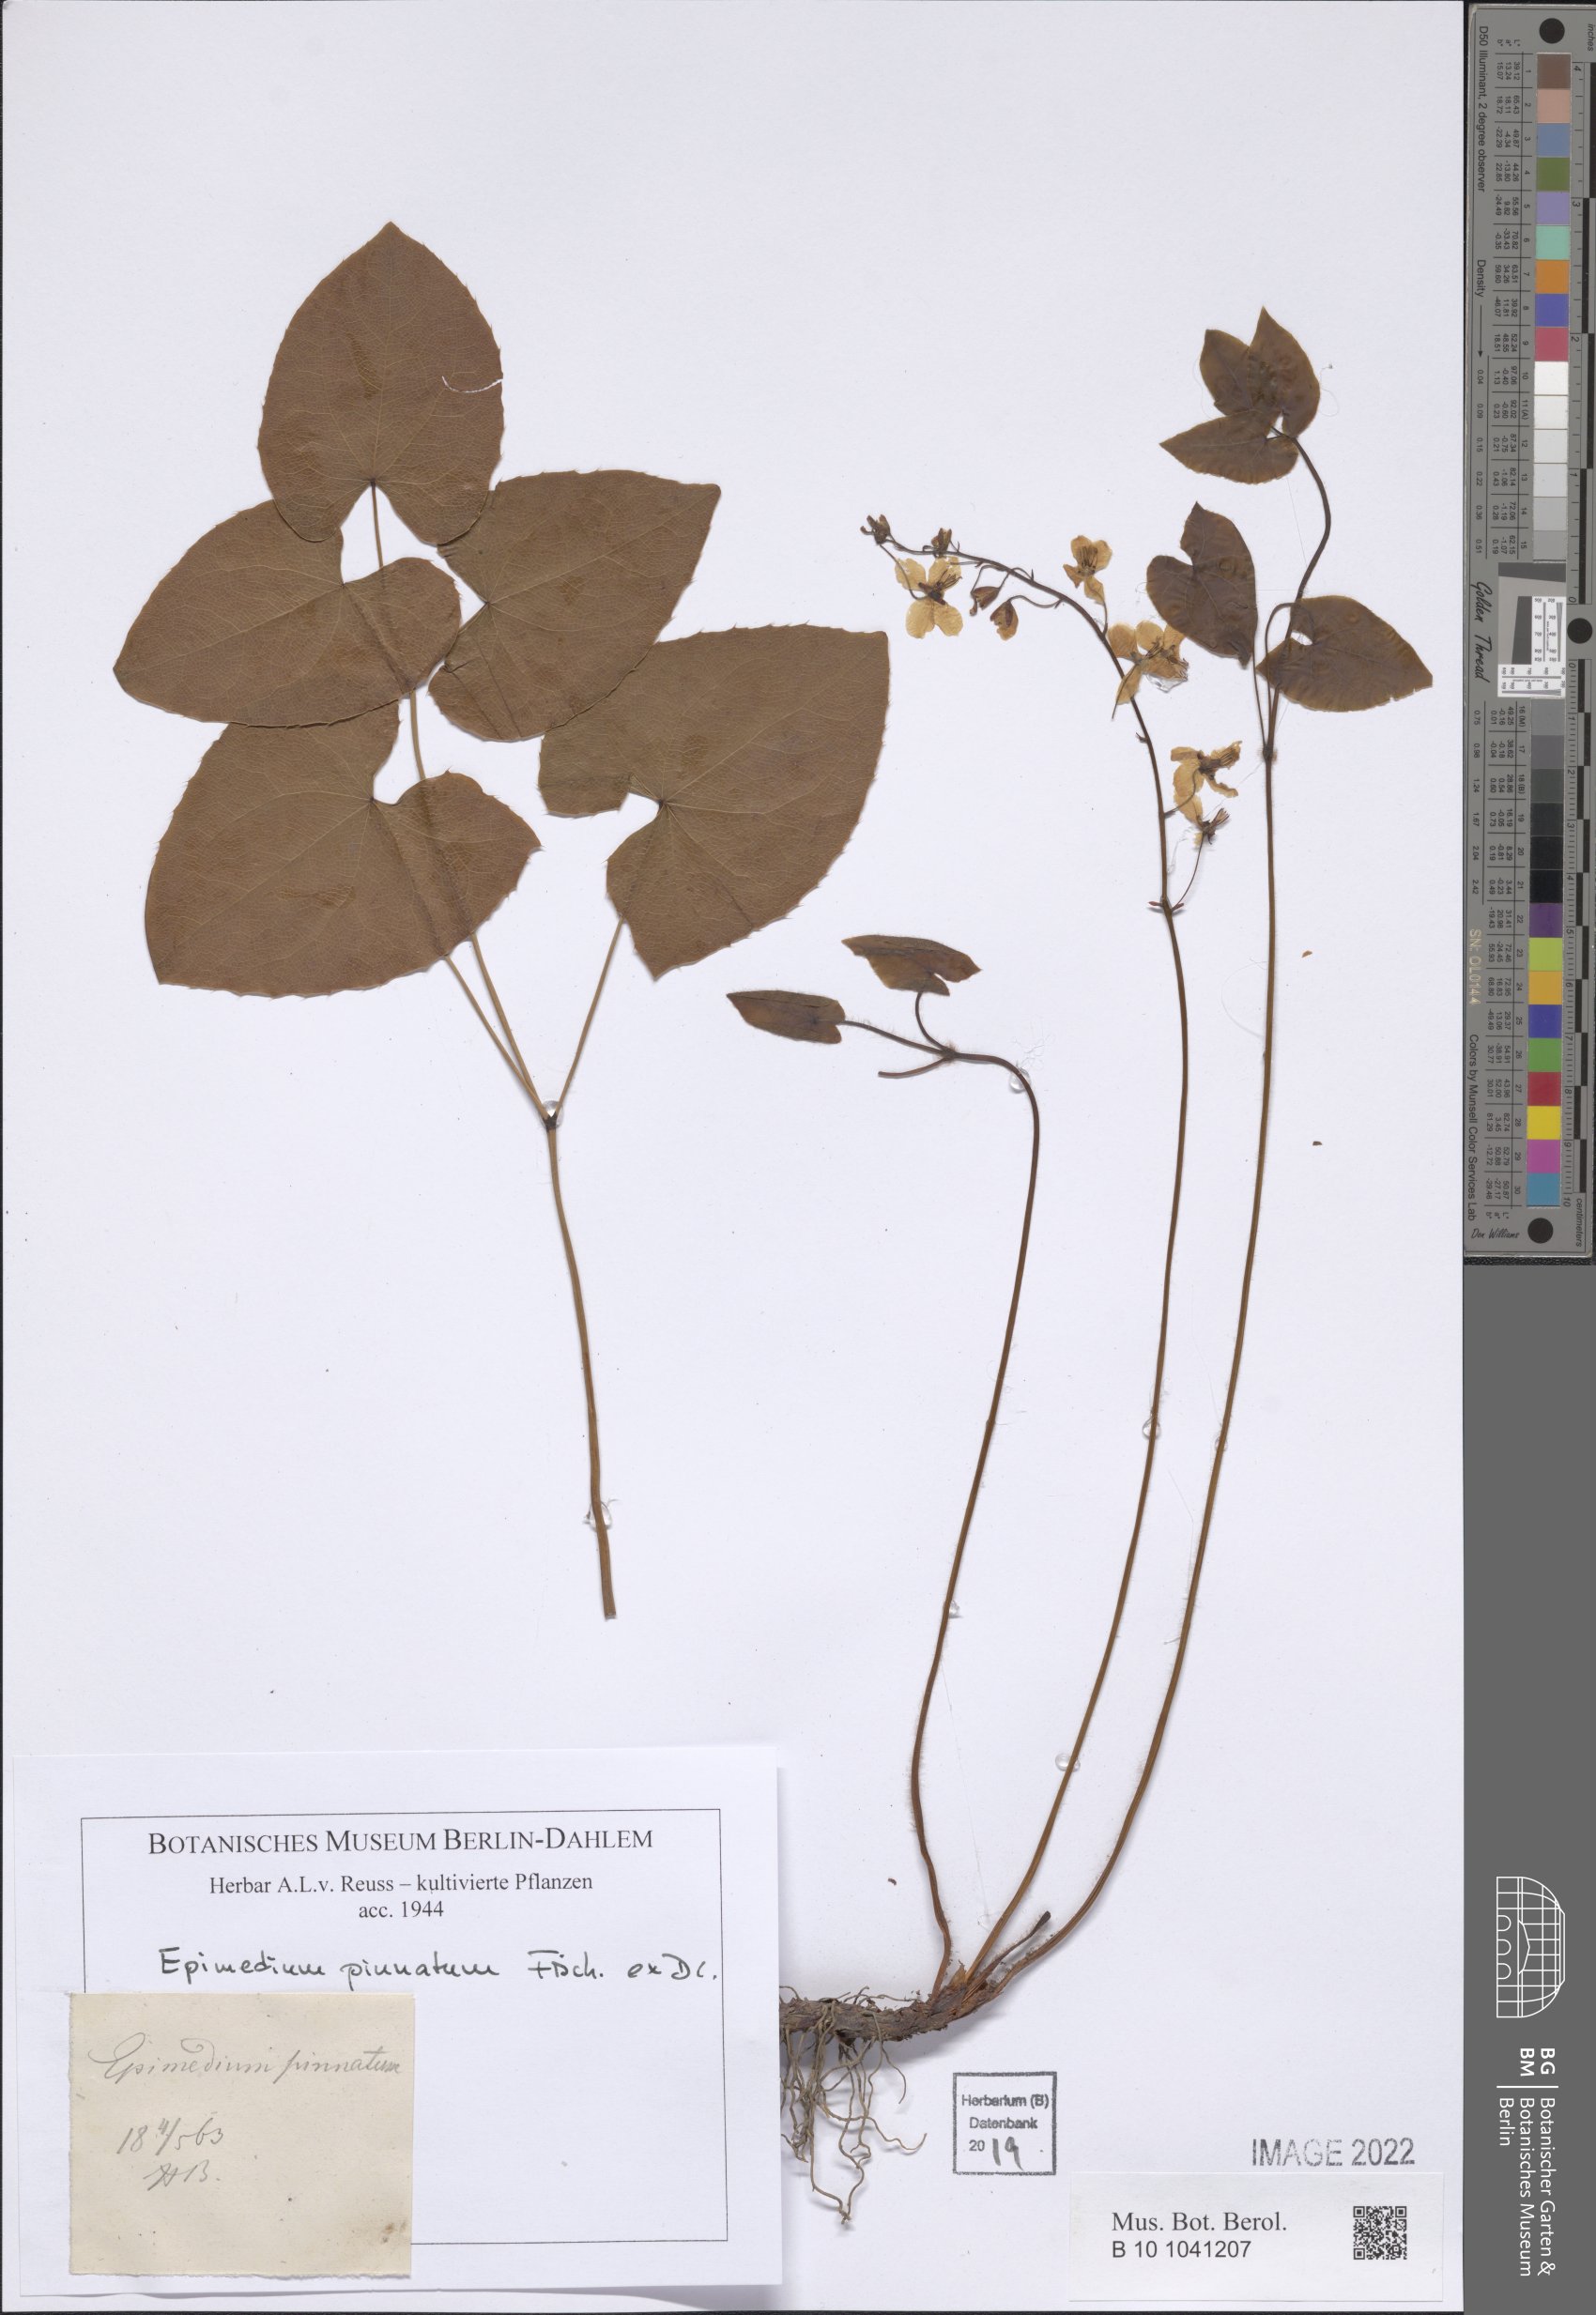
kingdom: Plantae
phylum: Tracheophyta
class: Magnoliopsida
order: Ranunculales
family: Berberidaceae
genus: Epimedium
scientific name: Epimedium pinnatum
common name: Caucasian barrenwort
